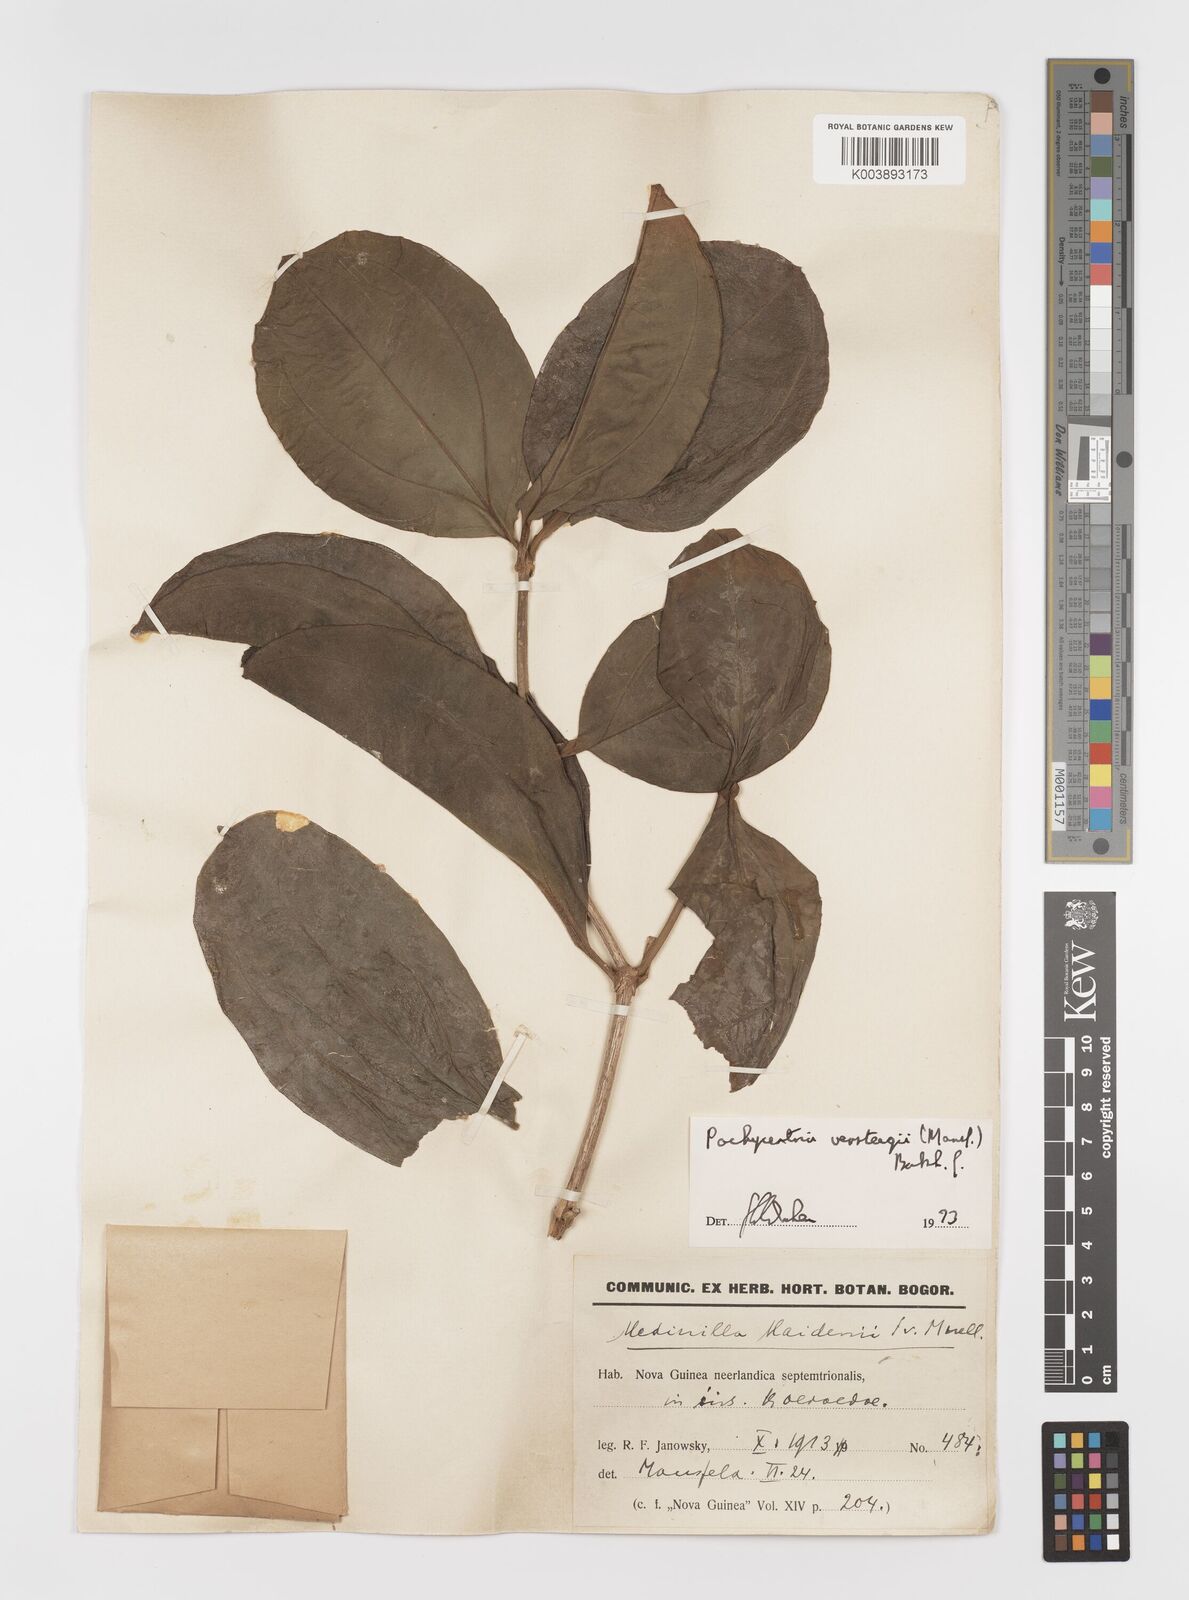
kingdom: Plantae
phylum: Tracheophyta
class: Magnoliopsida
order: Myrtales
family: Melastomataceae
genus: Medinilla
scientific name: Medinilla versteegii
